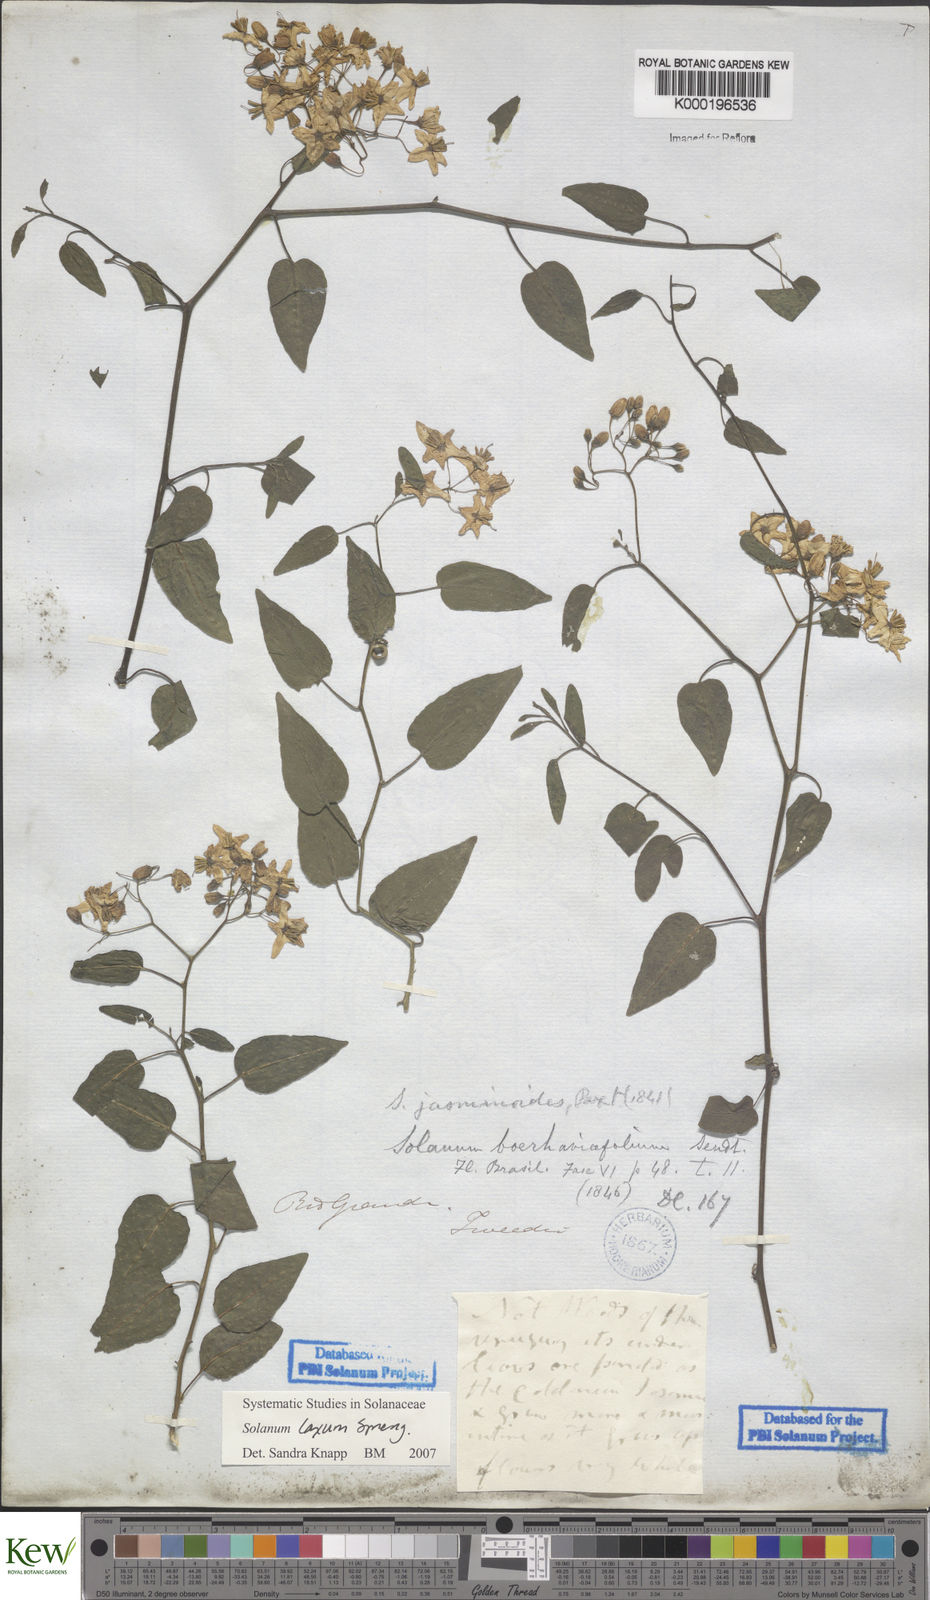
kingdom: Plantae
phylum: Tracheophyta
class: Magnoliopsida
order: Solanales
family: Solanaceae
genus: Solanum
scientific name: Solanum laxum
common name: Nightshade
